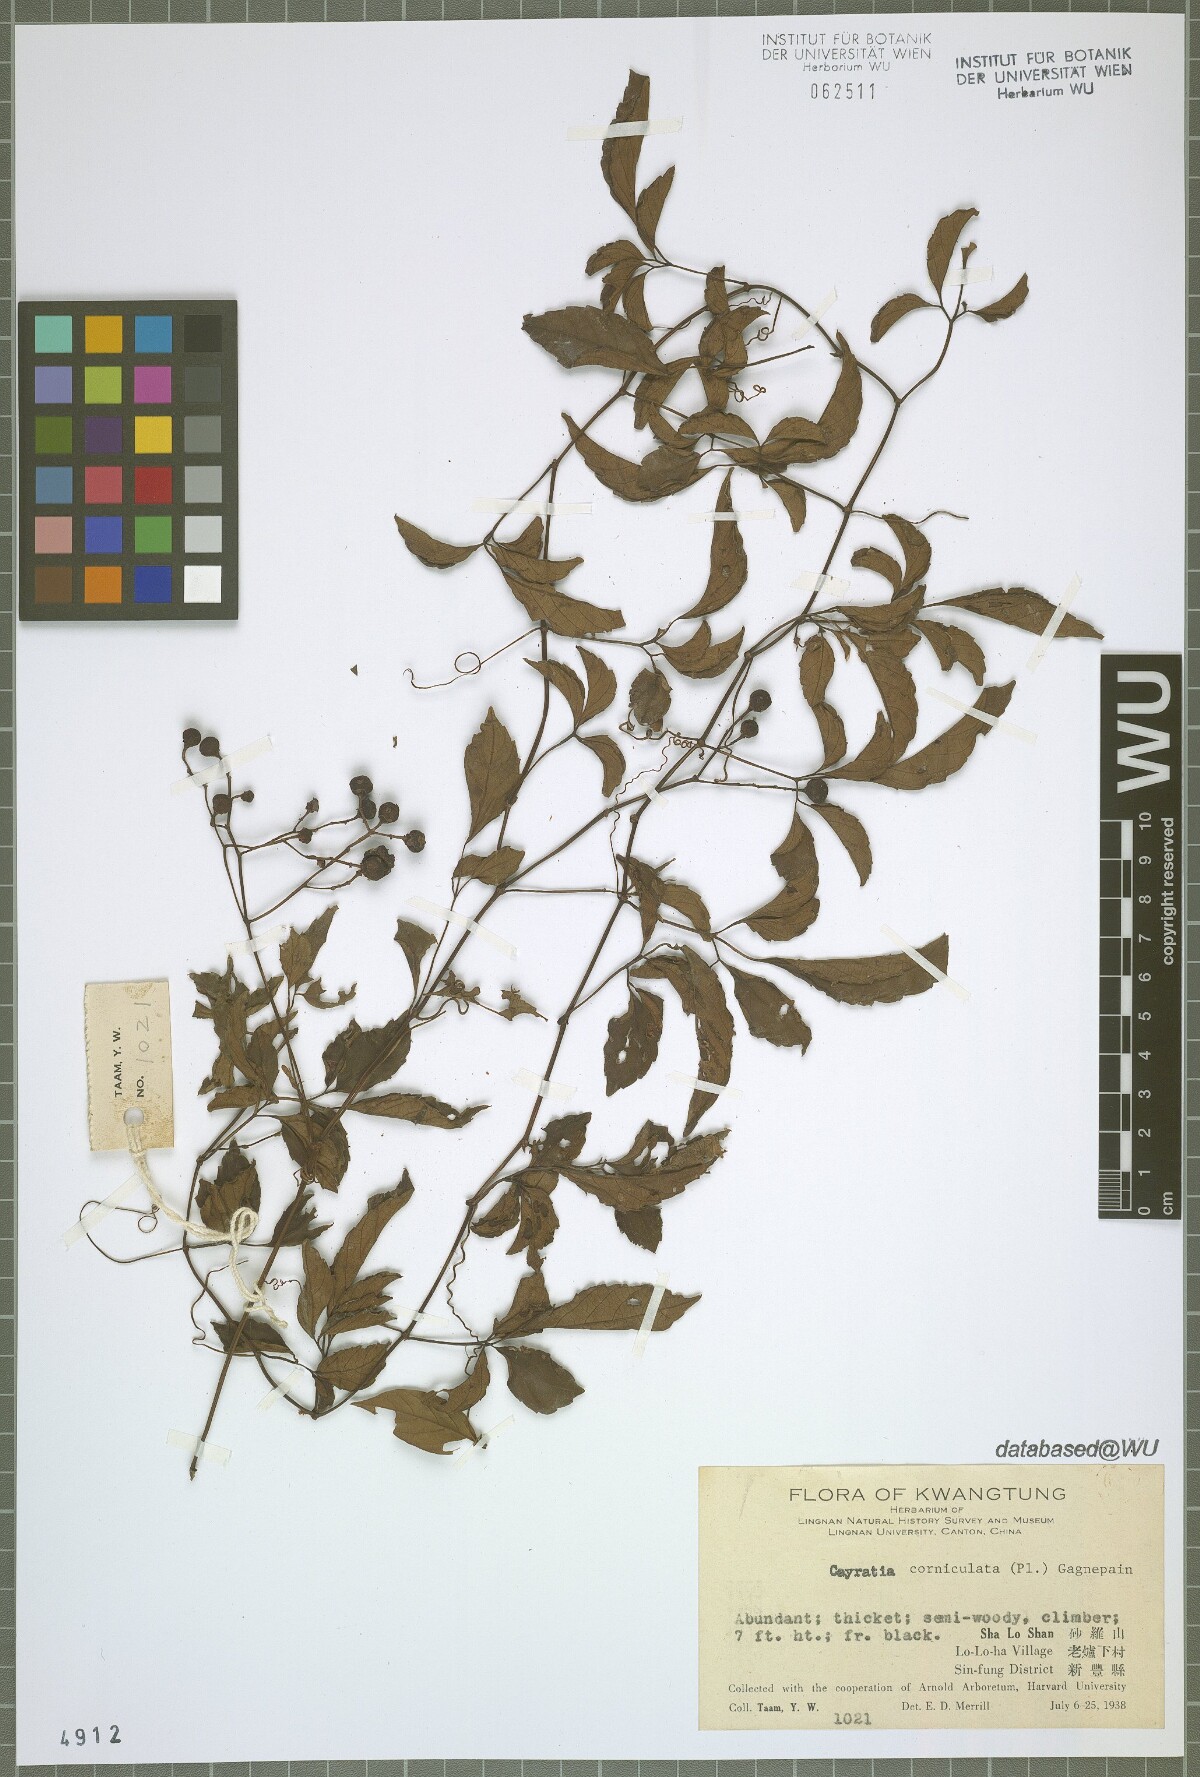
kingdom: Plantae
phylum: Tracheophyta
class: Magnoliopsida
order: Vitales
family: Vitaceae
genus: Causonis
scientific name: Causonis corniculata
